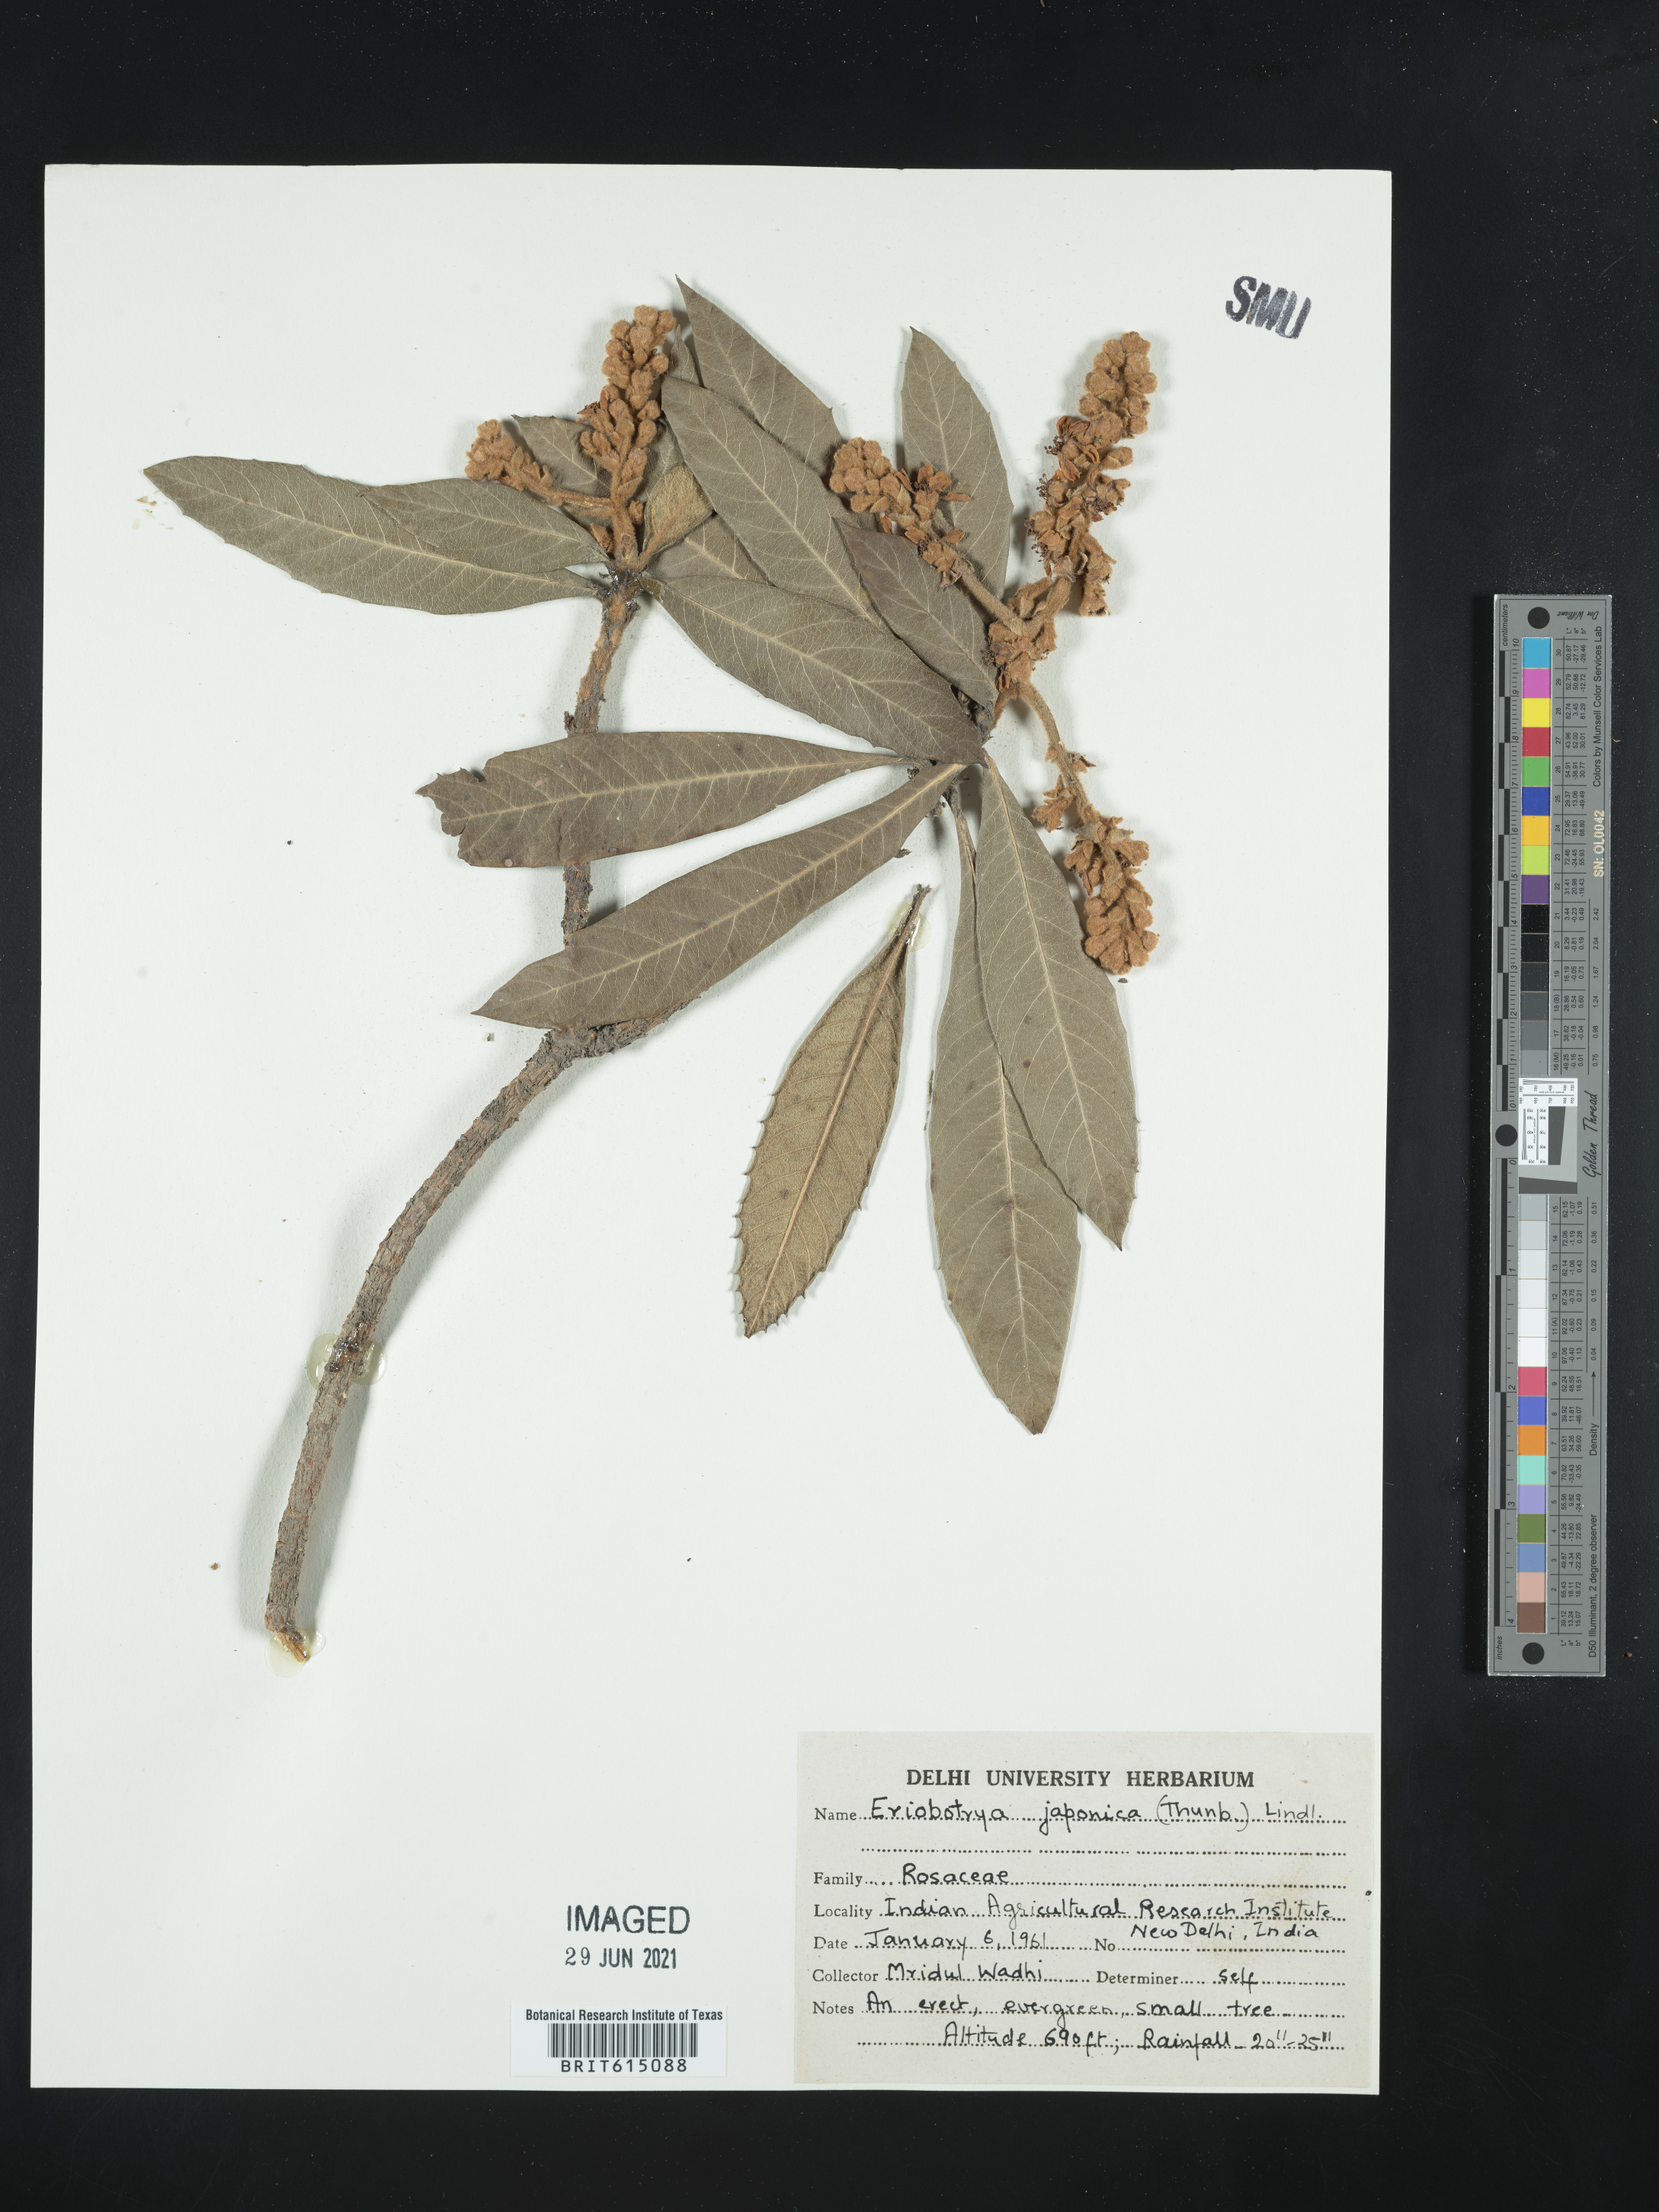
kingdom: Plantae
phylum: Tracheophyta
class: Magnoliopsida
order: Rosales
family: Rosaceae
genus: Rhaphiolepis
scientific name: Rhaphiolepis bibas
